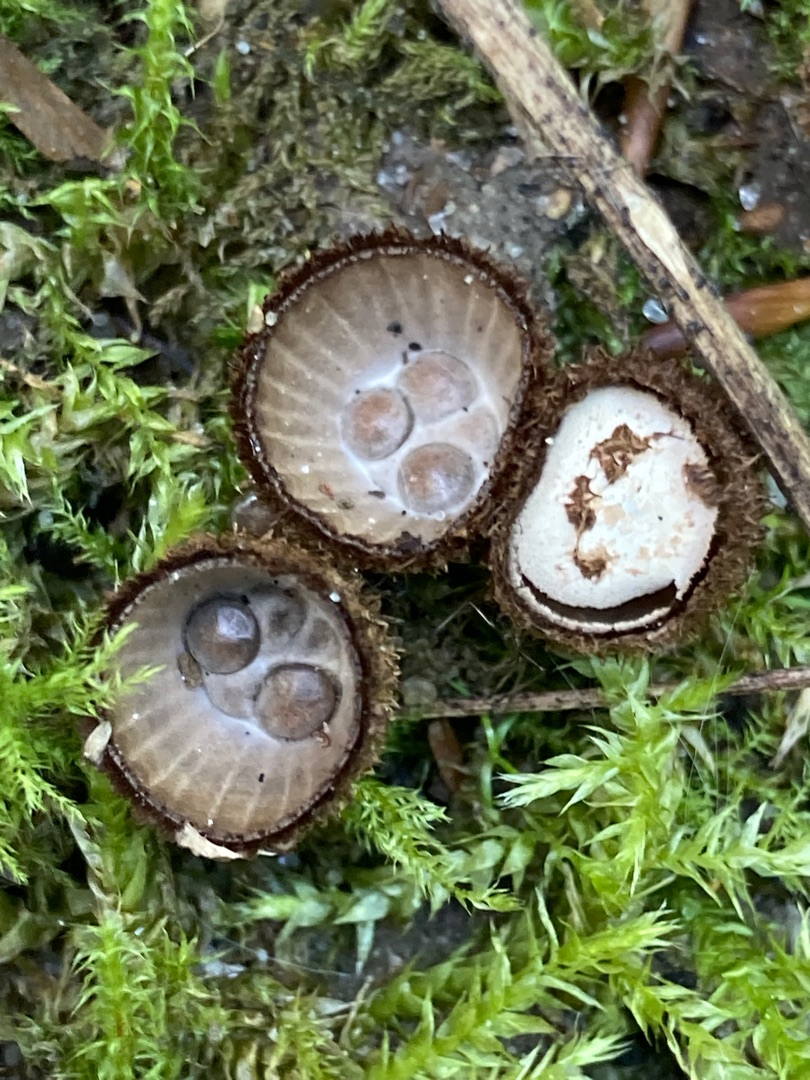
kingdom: Fungi
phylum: Basidiomycota
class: Agaricomycetes
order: Agaricales
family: Agaricaceae
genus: Cyathus
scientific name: Cyathus striatus
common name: Stribet redesvamp
